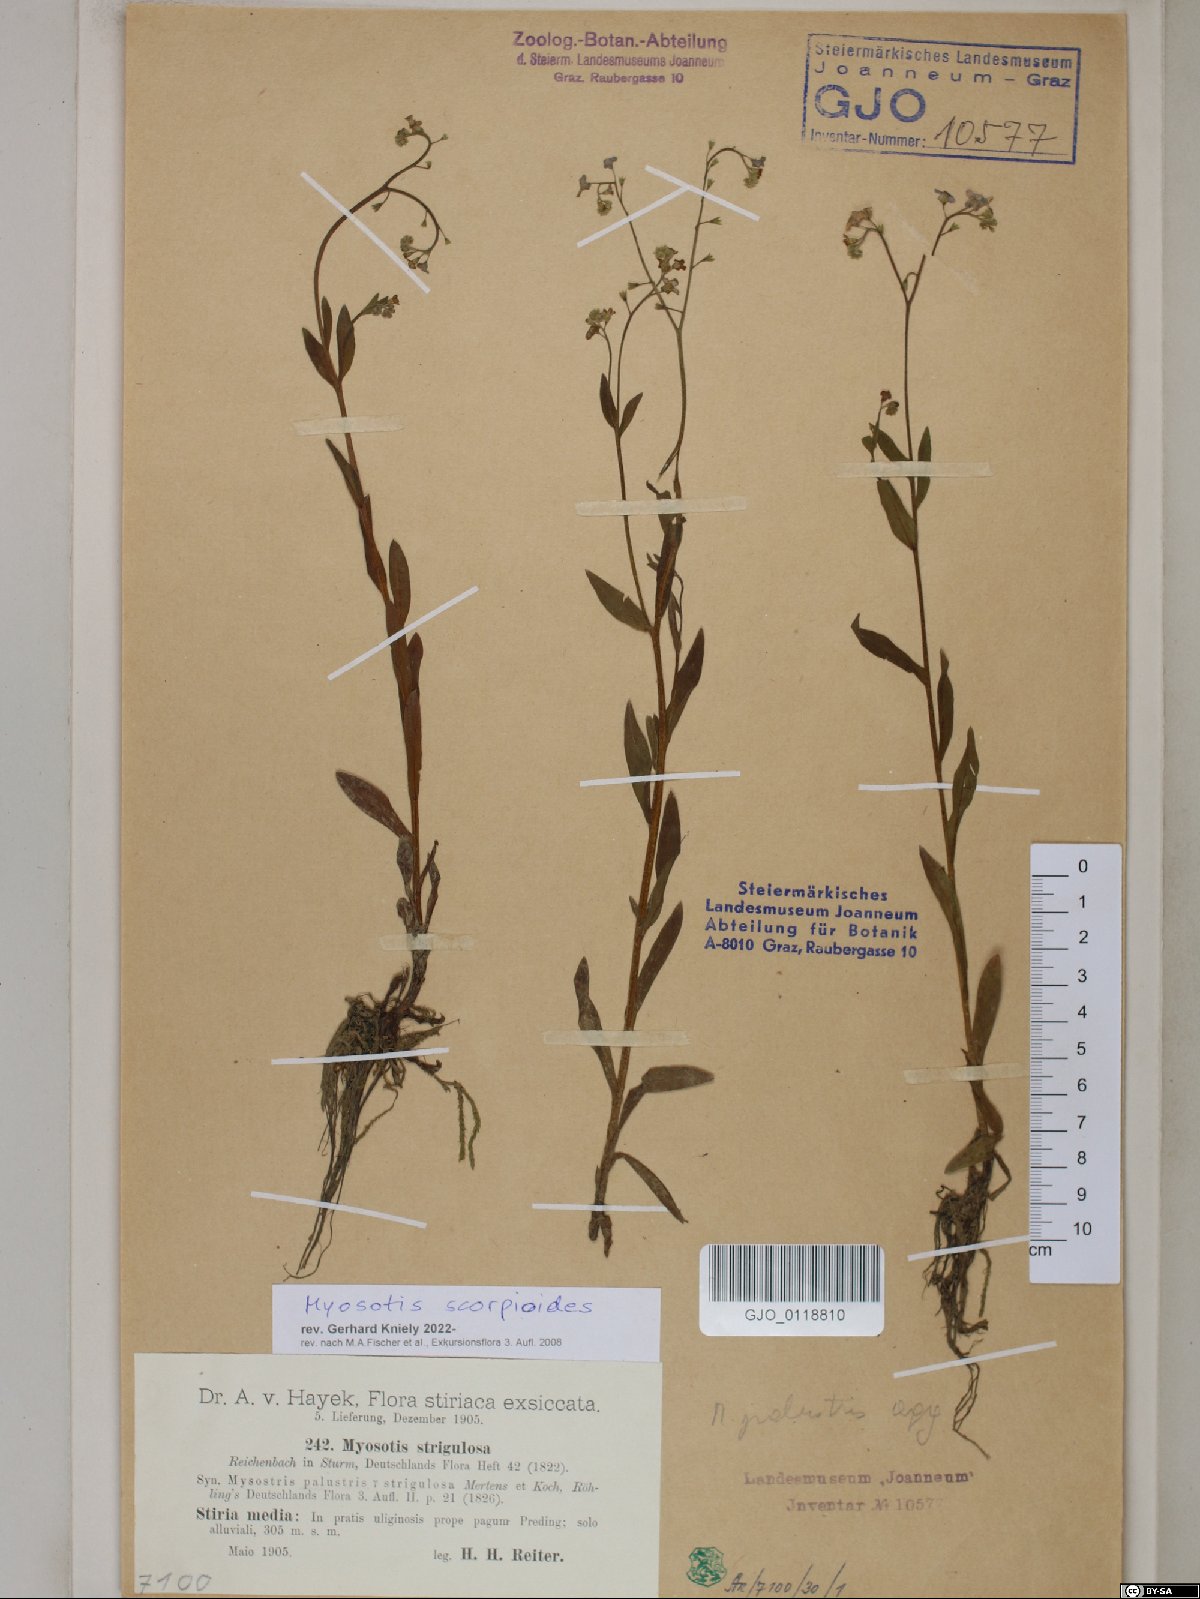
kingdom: Plantae
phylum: Tracheophyta
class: Magnoliopsida
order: Boraginales
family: Boraginaceae
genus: Myosotis
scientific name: Myosotis scorpioides
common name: Water forget-me-not
